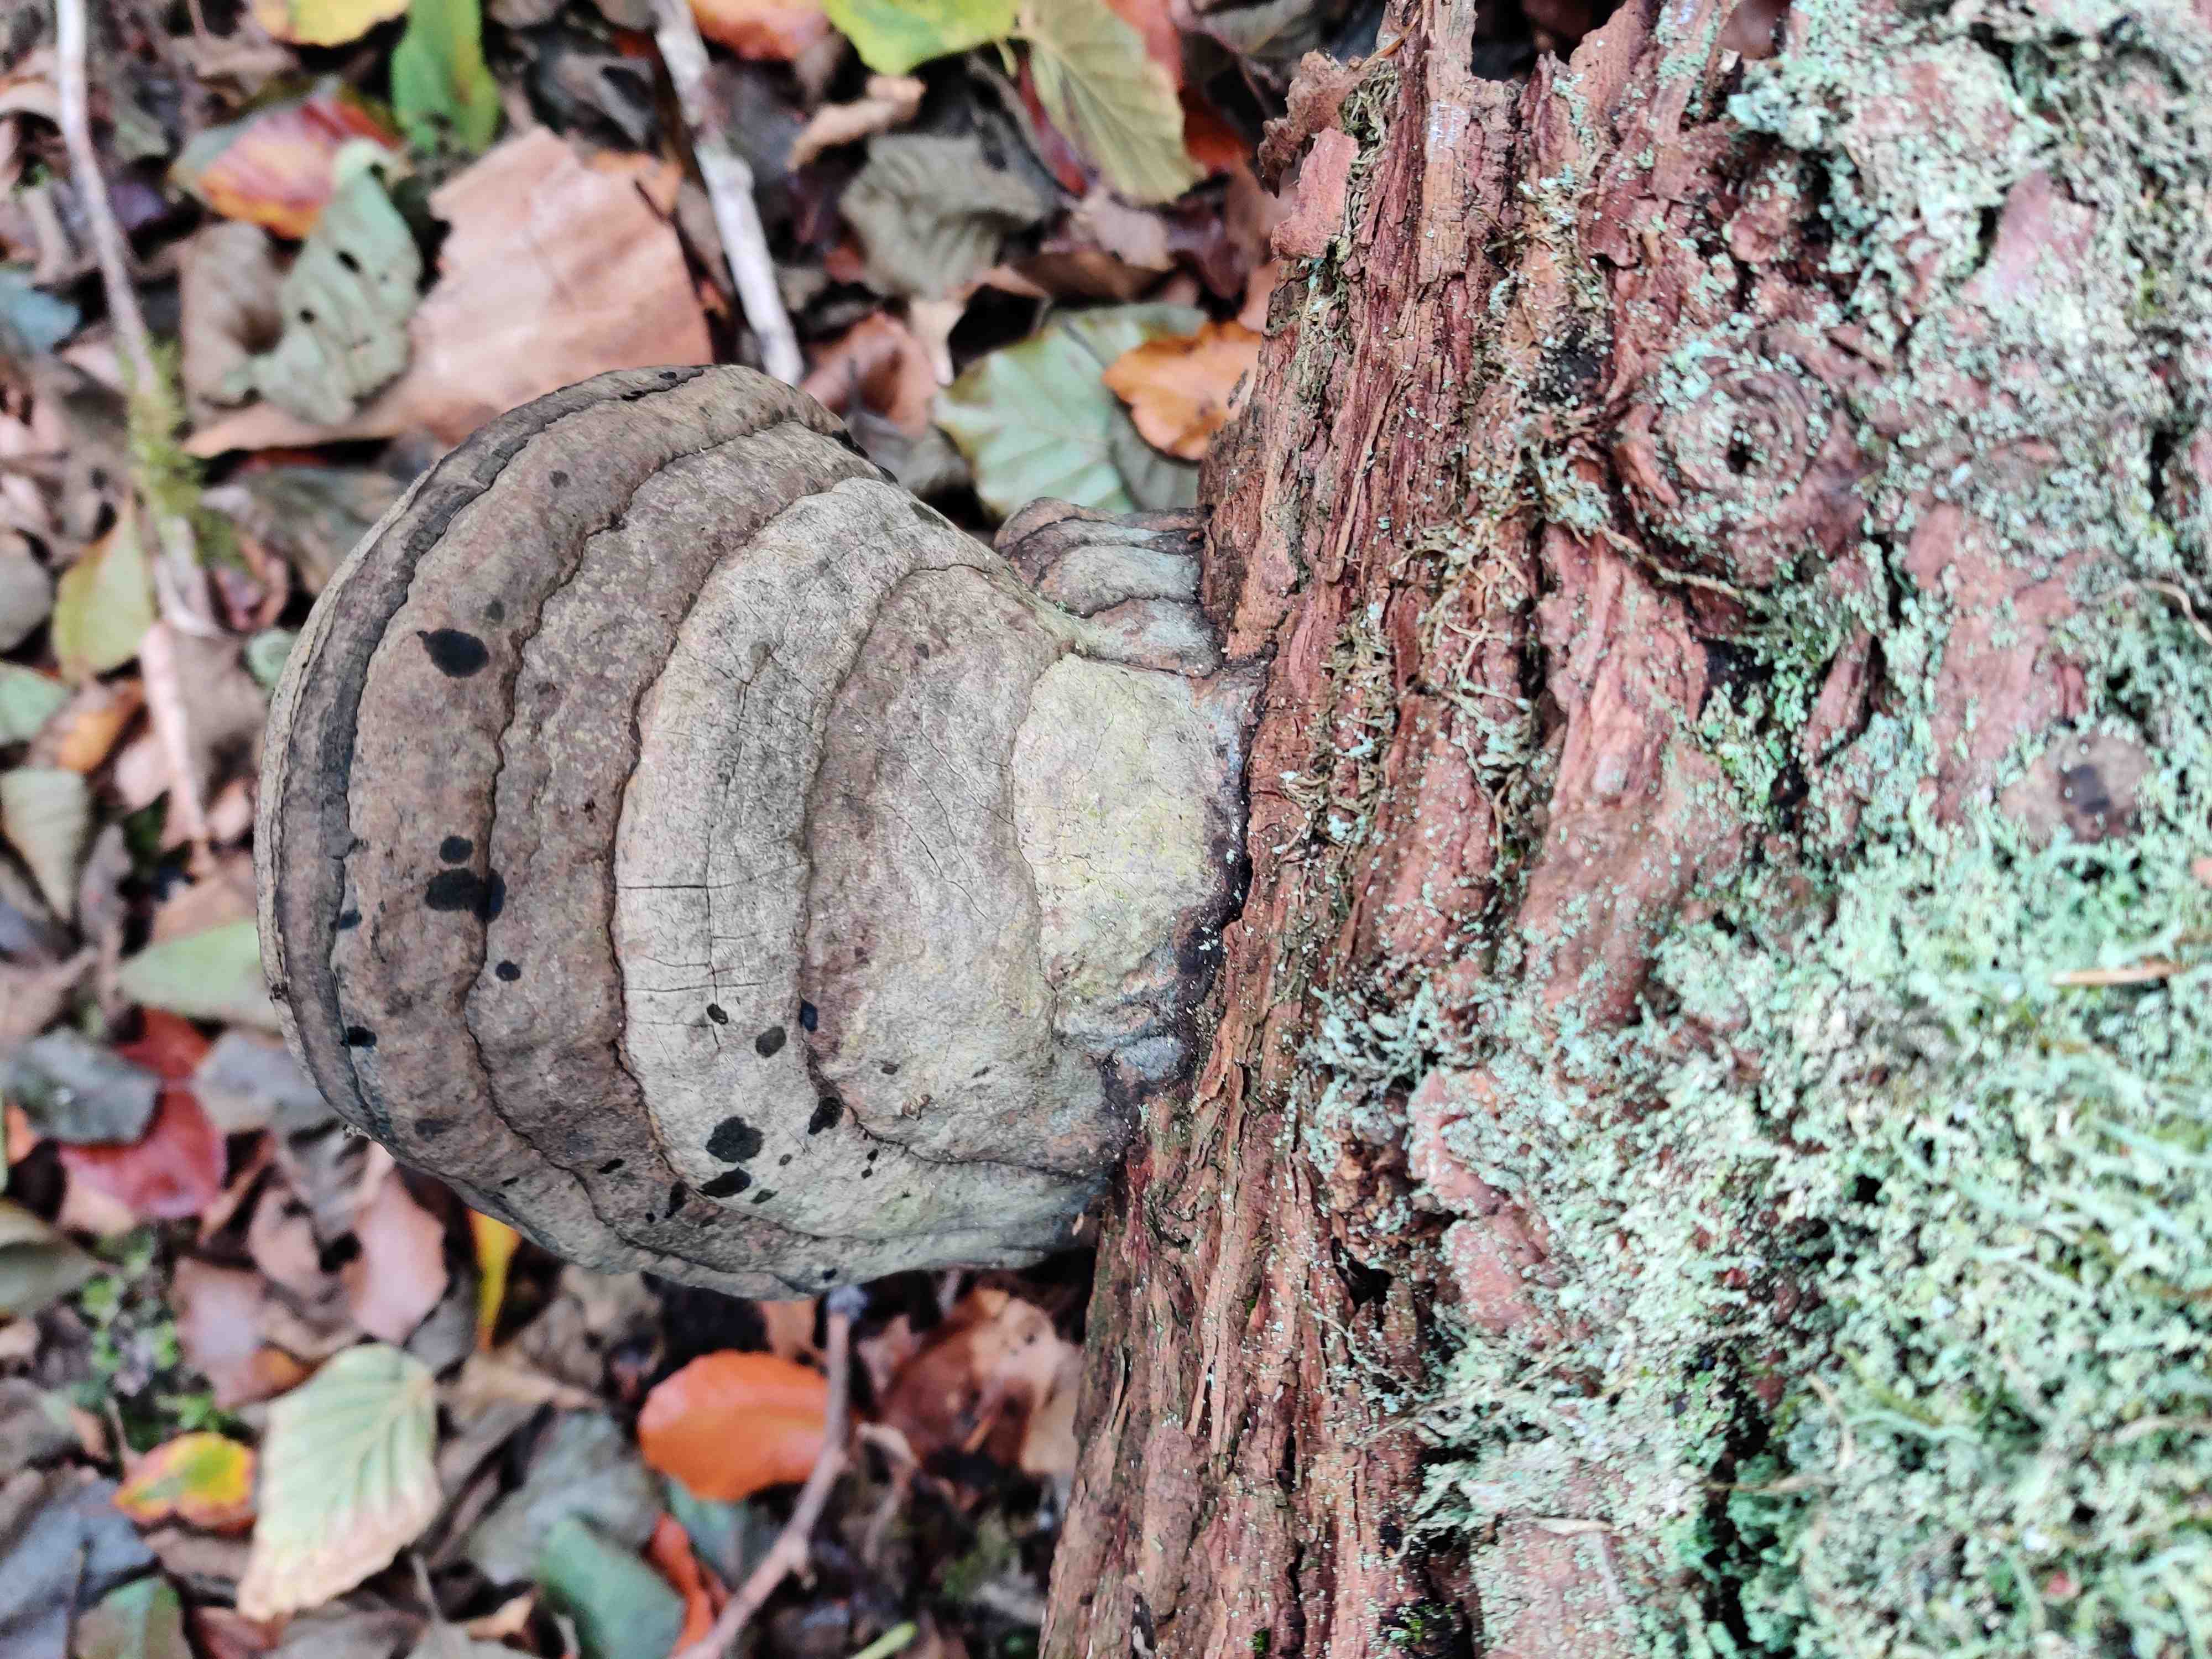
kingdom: Fungi
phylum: Basidiomycota
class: Agaricomycetes
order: Polyporales
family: Polyporaceae
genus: Fomes
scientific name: Fomes fomentarius
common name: tøndersvamp
